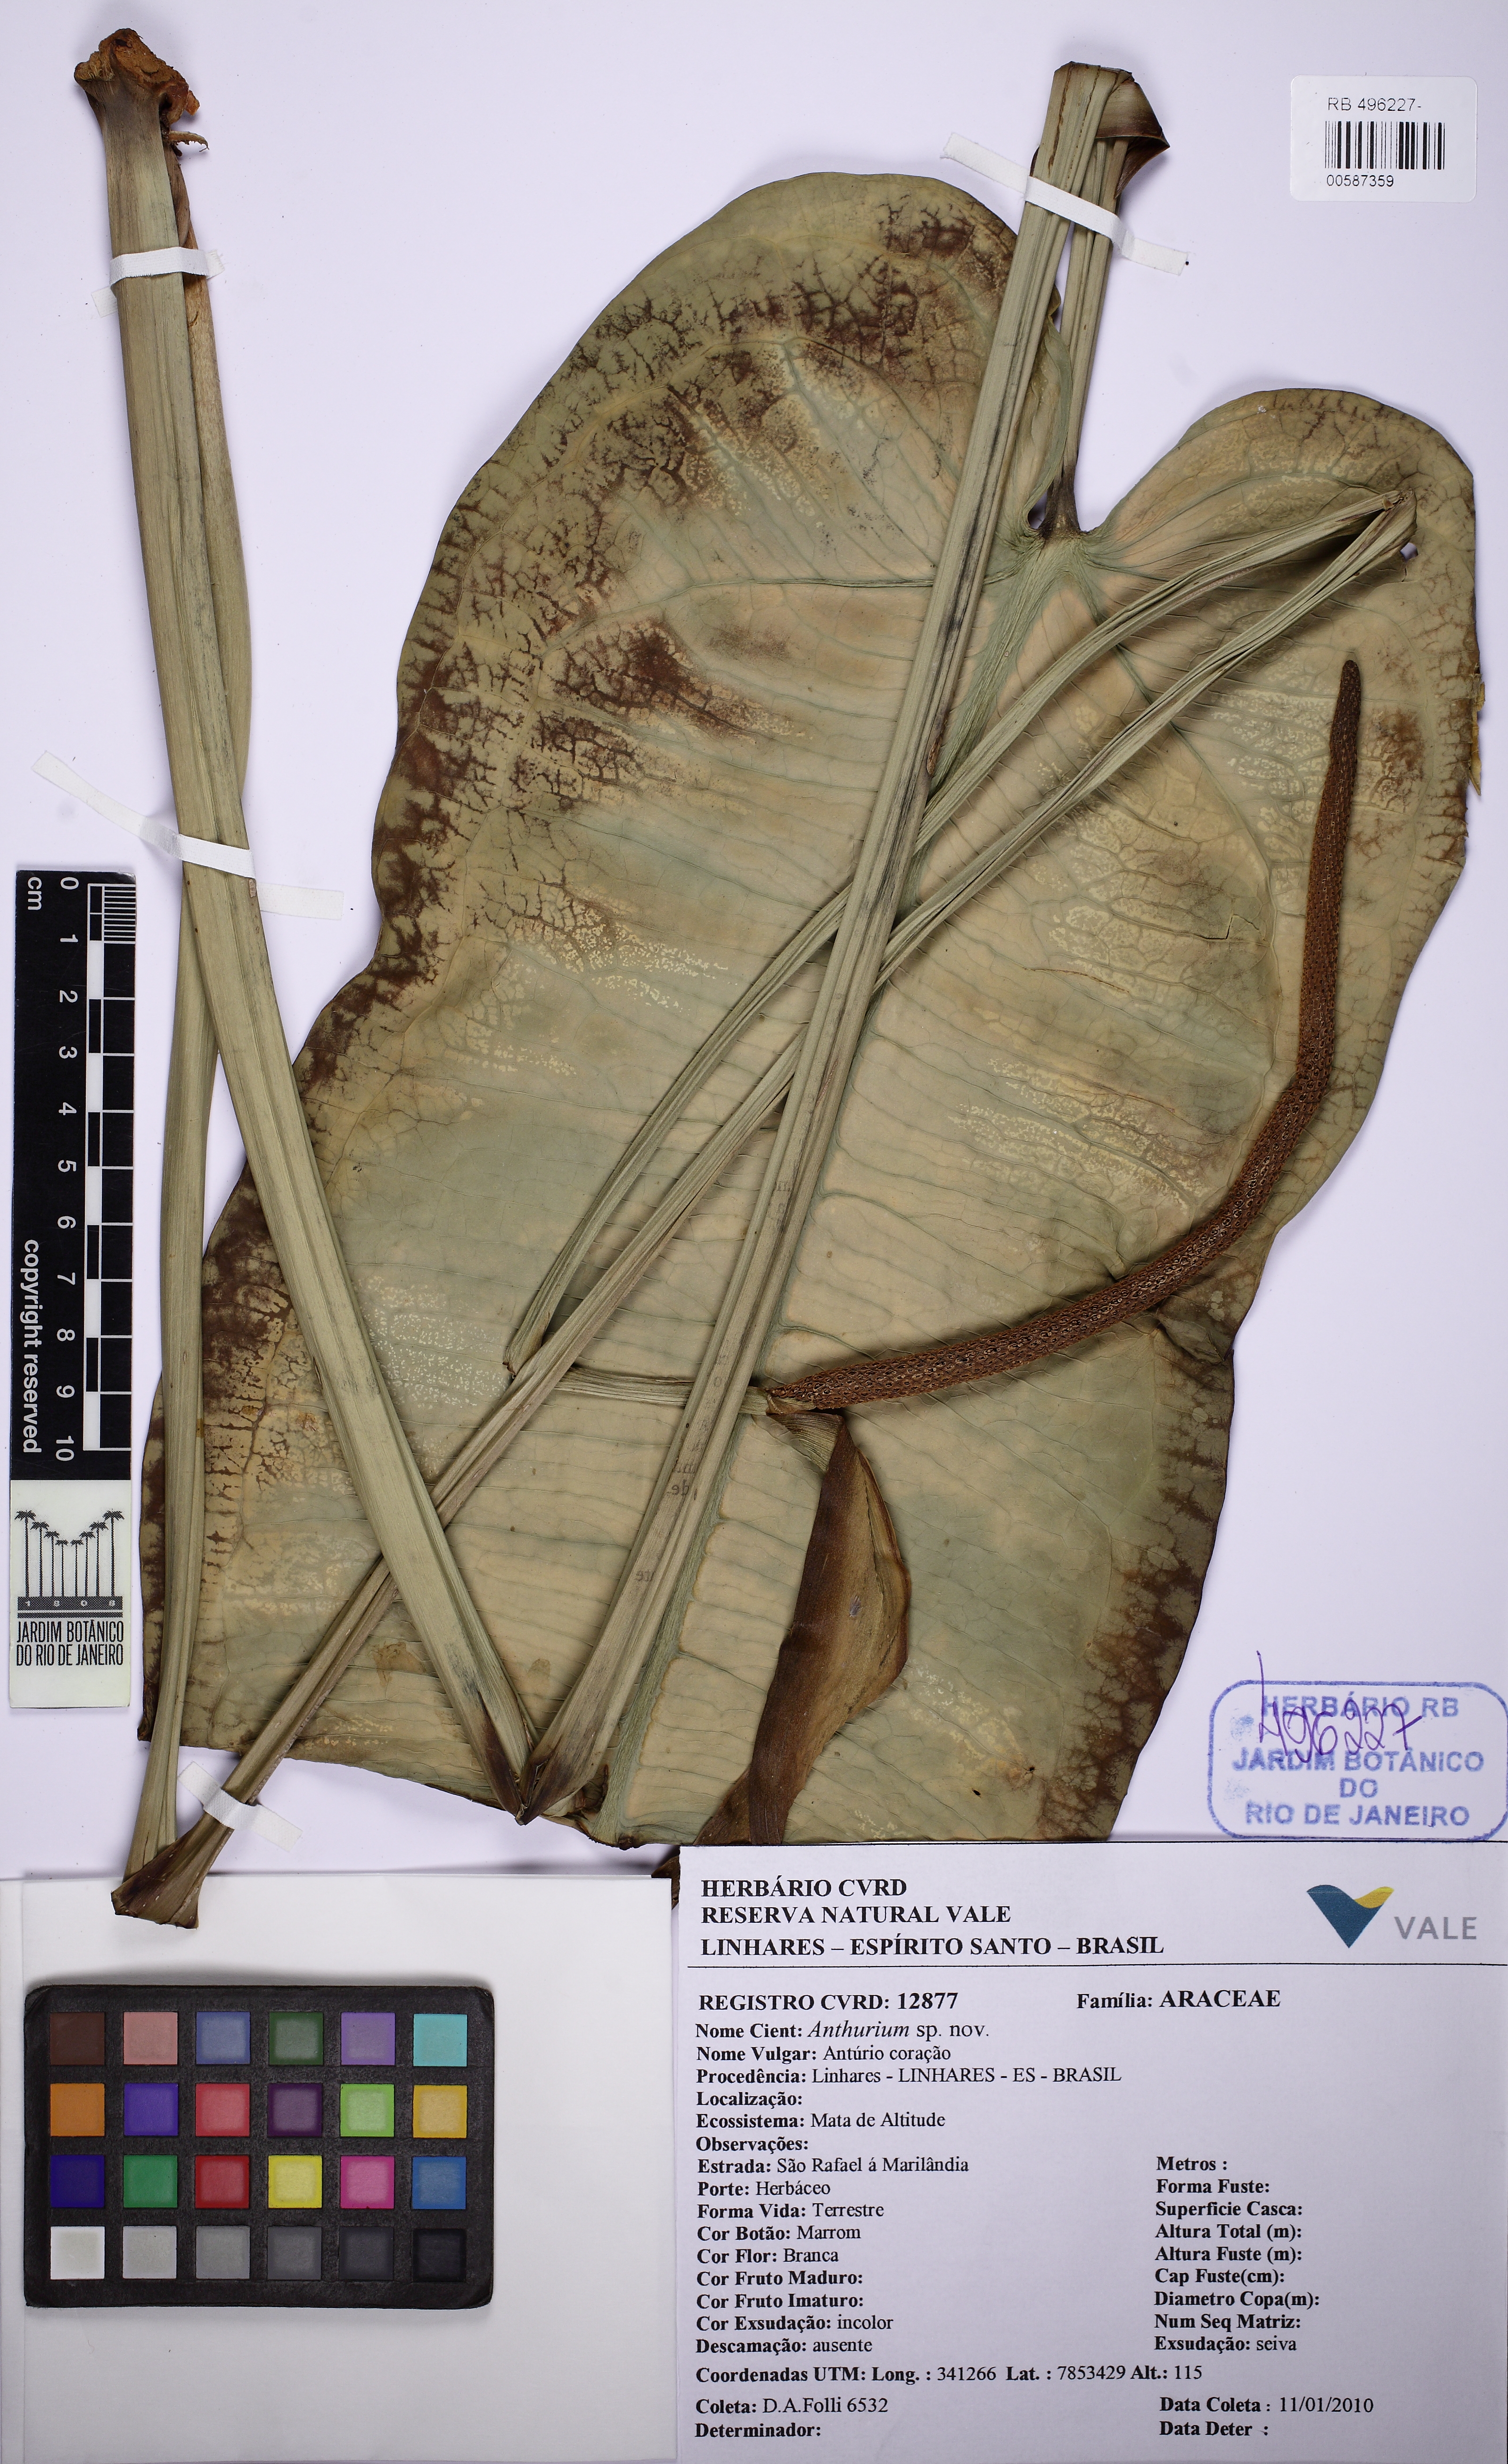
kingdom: Plantae
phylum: Tracheophyta
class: Liliopsida
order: Alismatales
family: Araceae
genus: Anthurium
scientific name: Anthurium
